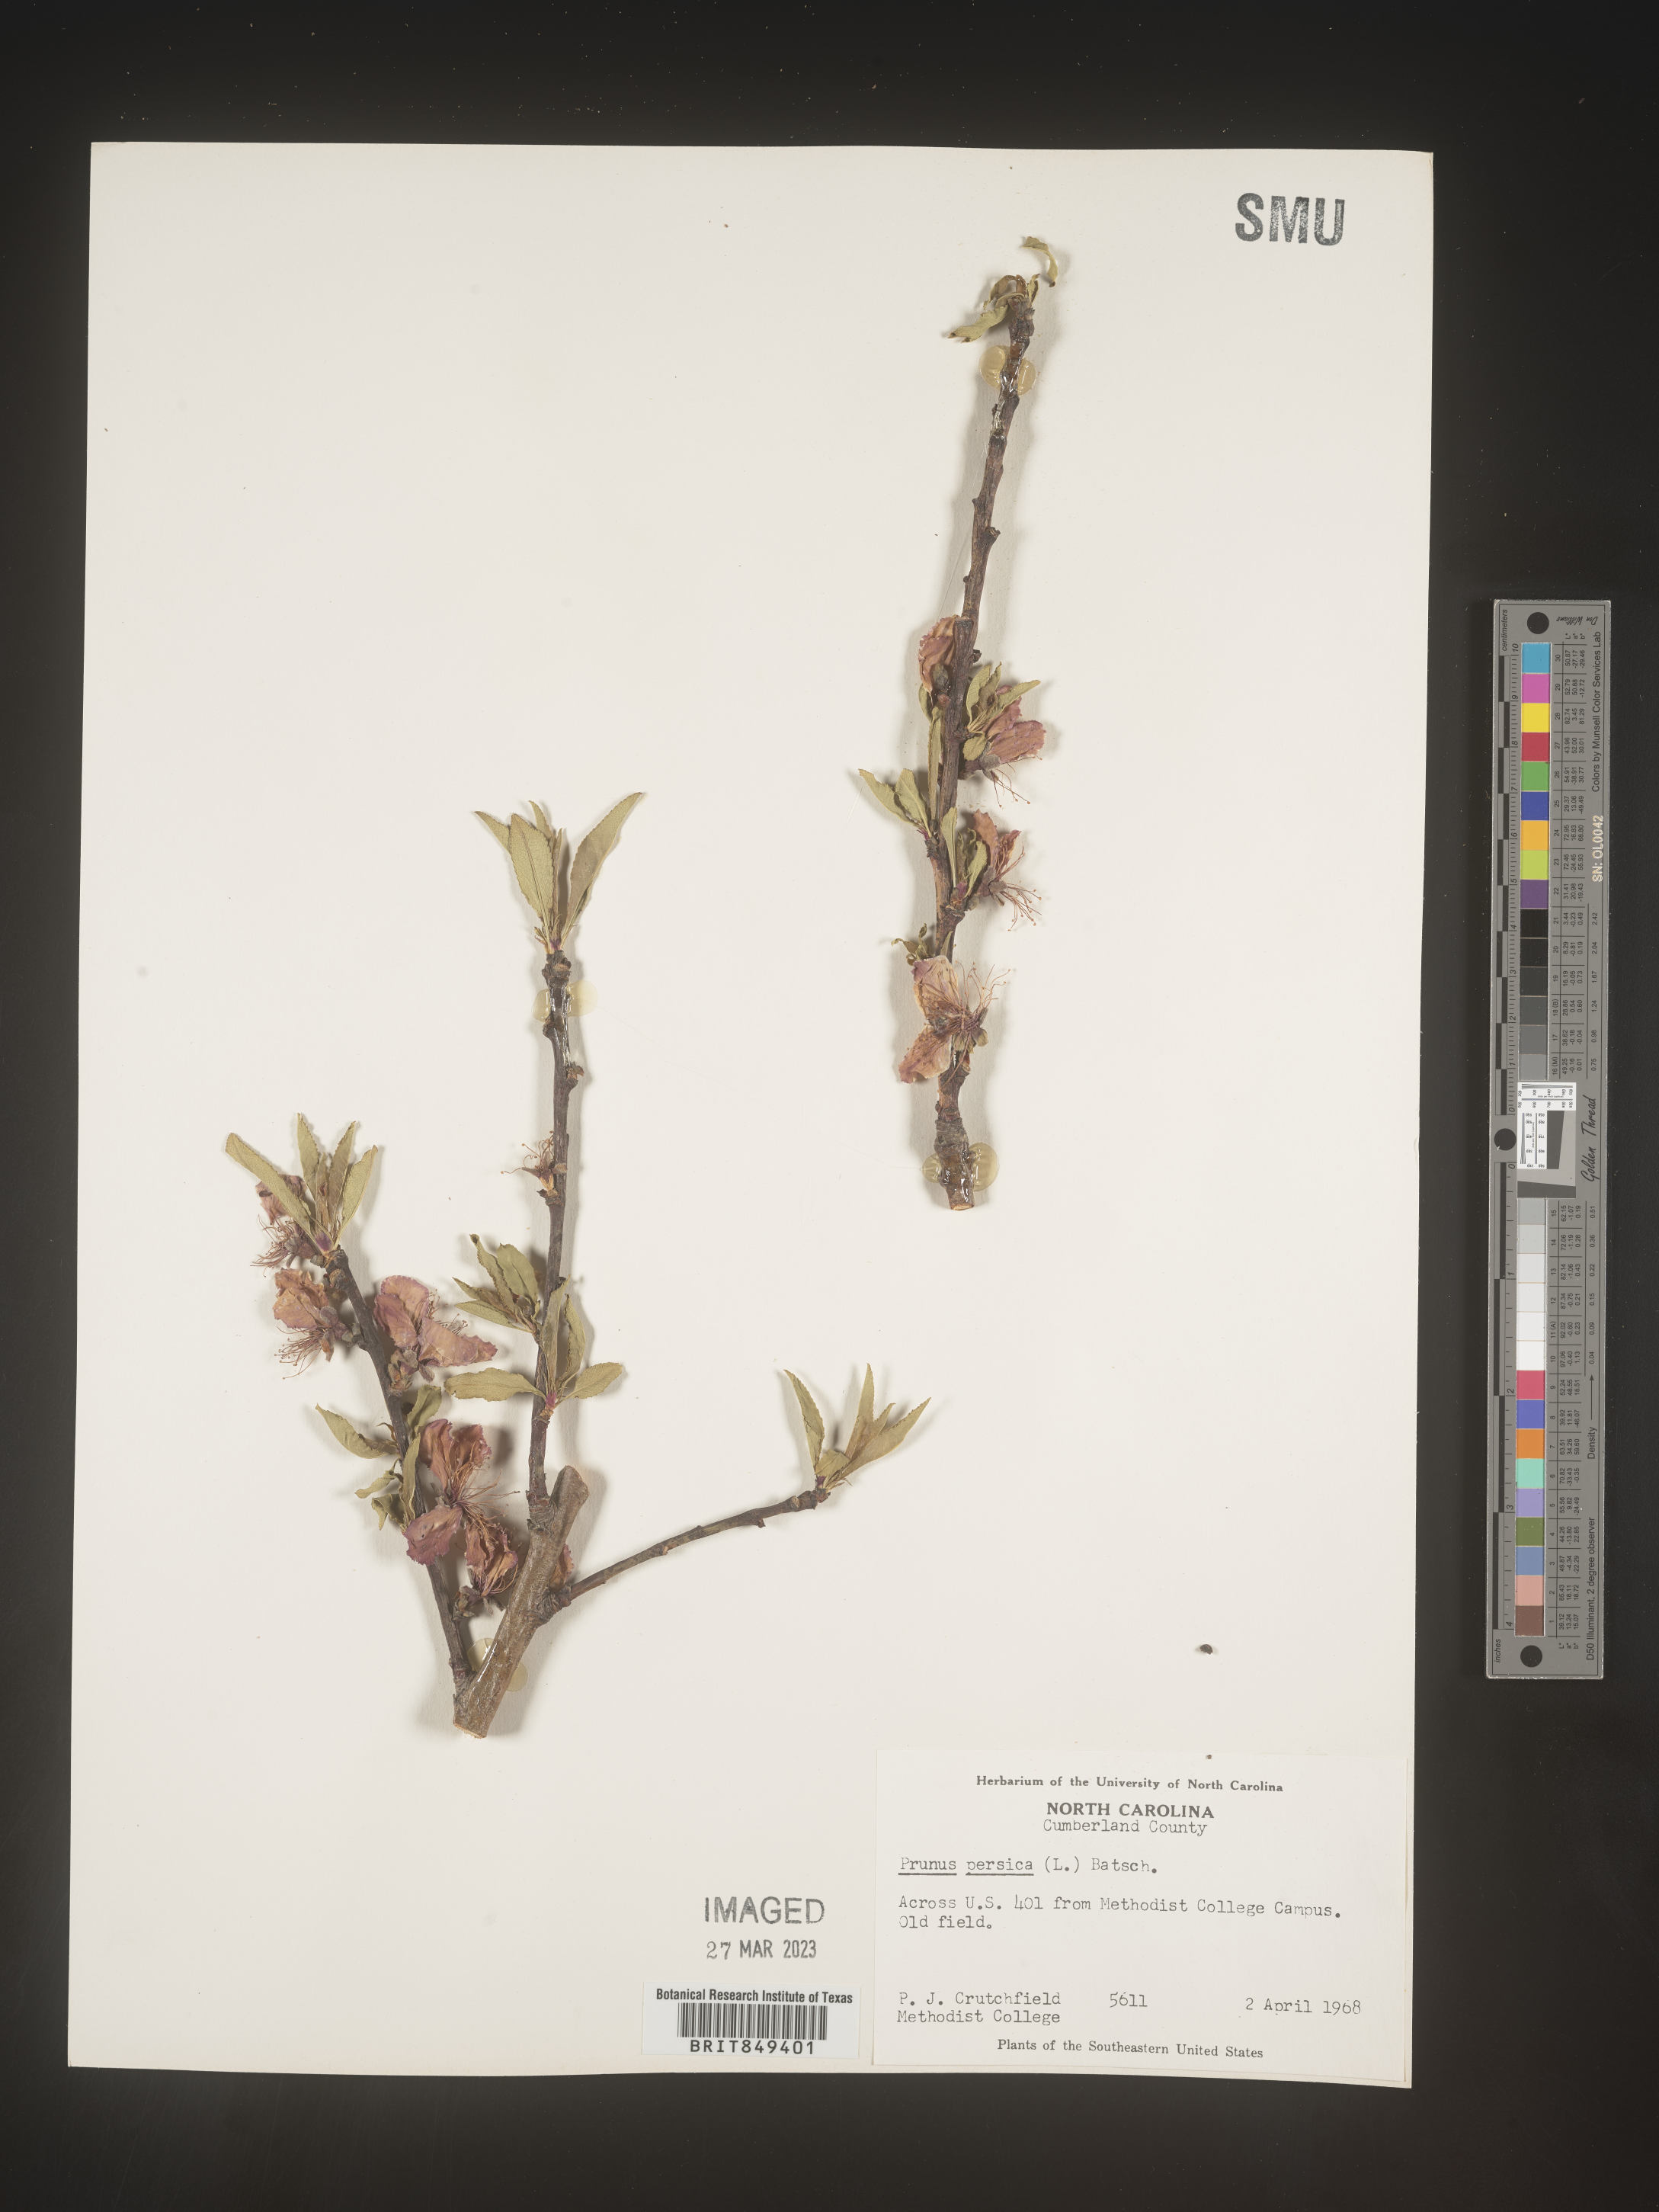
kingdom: Plantae
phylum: Tracheophyta
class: Magnoliopsida
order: Rosales
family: Rosaceae
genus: Prunus
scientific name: Prunus persica
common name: Peach
